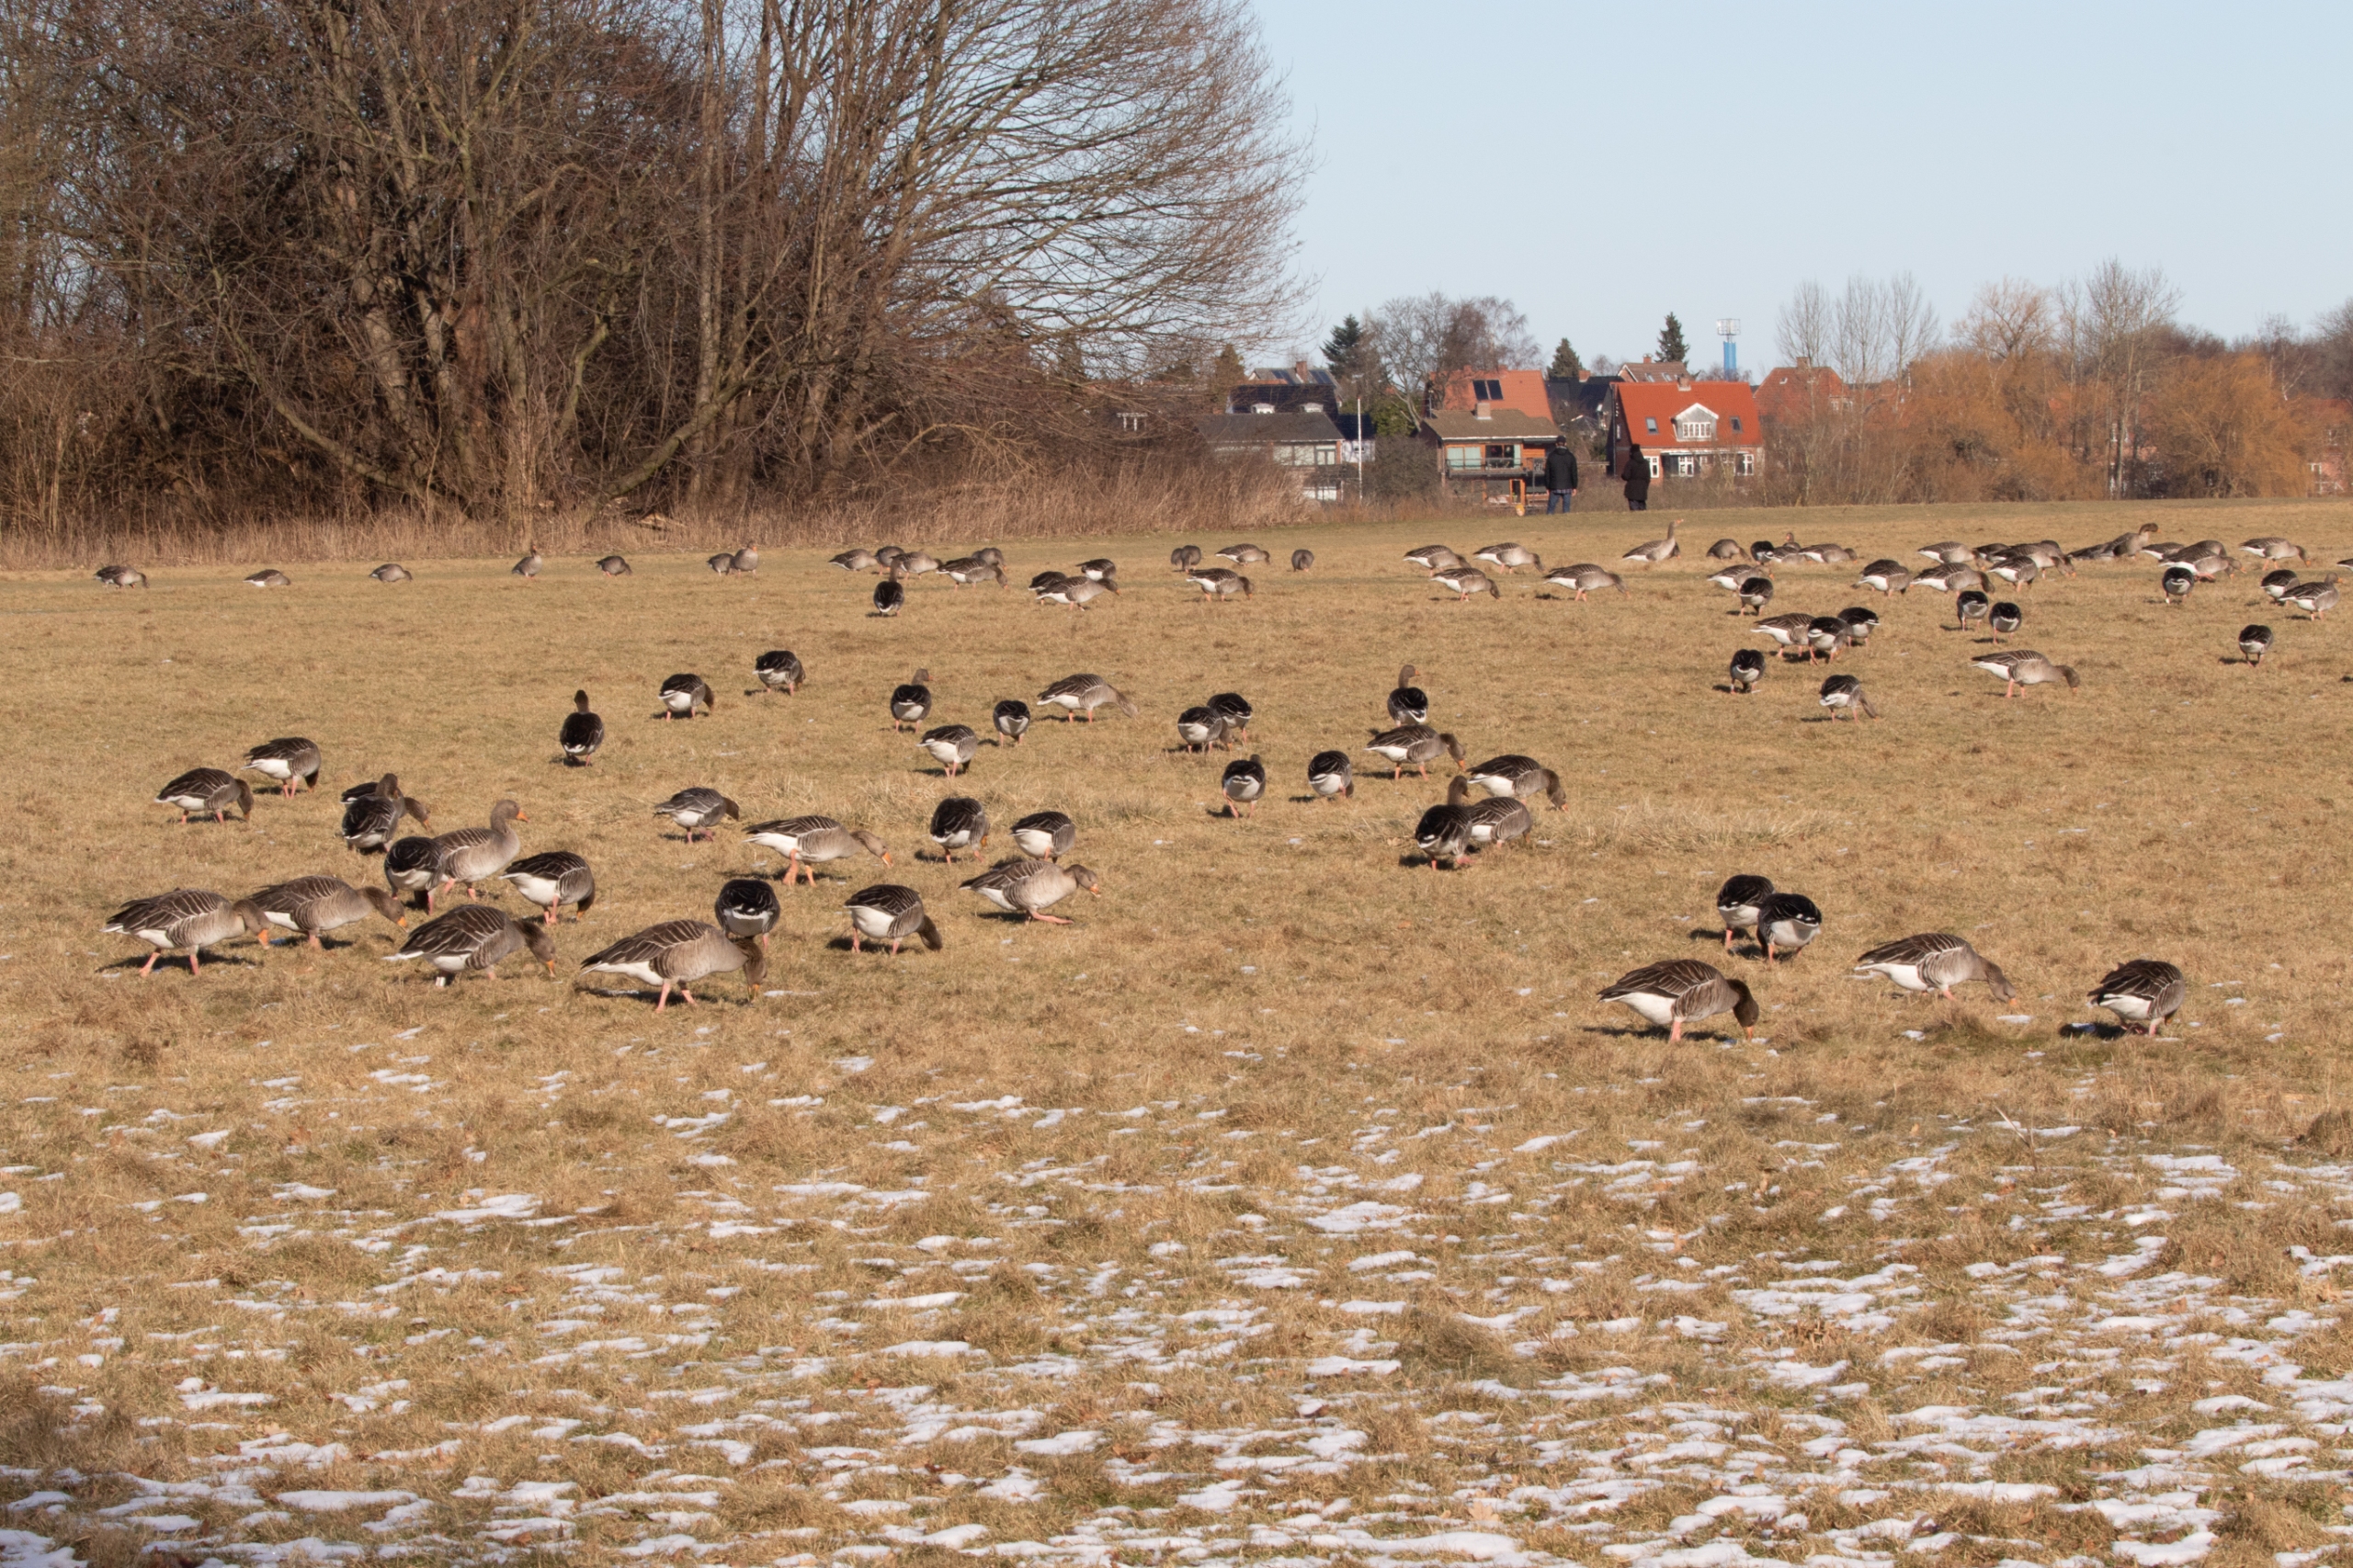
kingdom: Animalia
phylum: Chordata
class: Aves
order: Anseriformes
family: Anatidae
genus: Anser
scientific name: Anser anser
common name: Grågås
